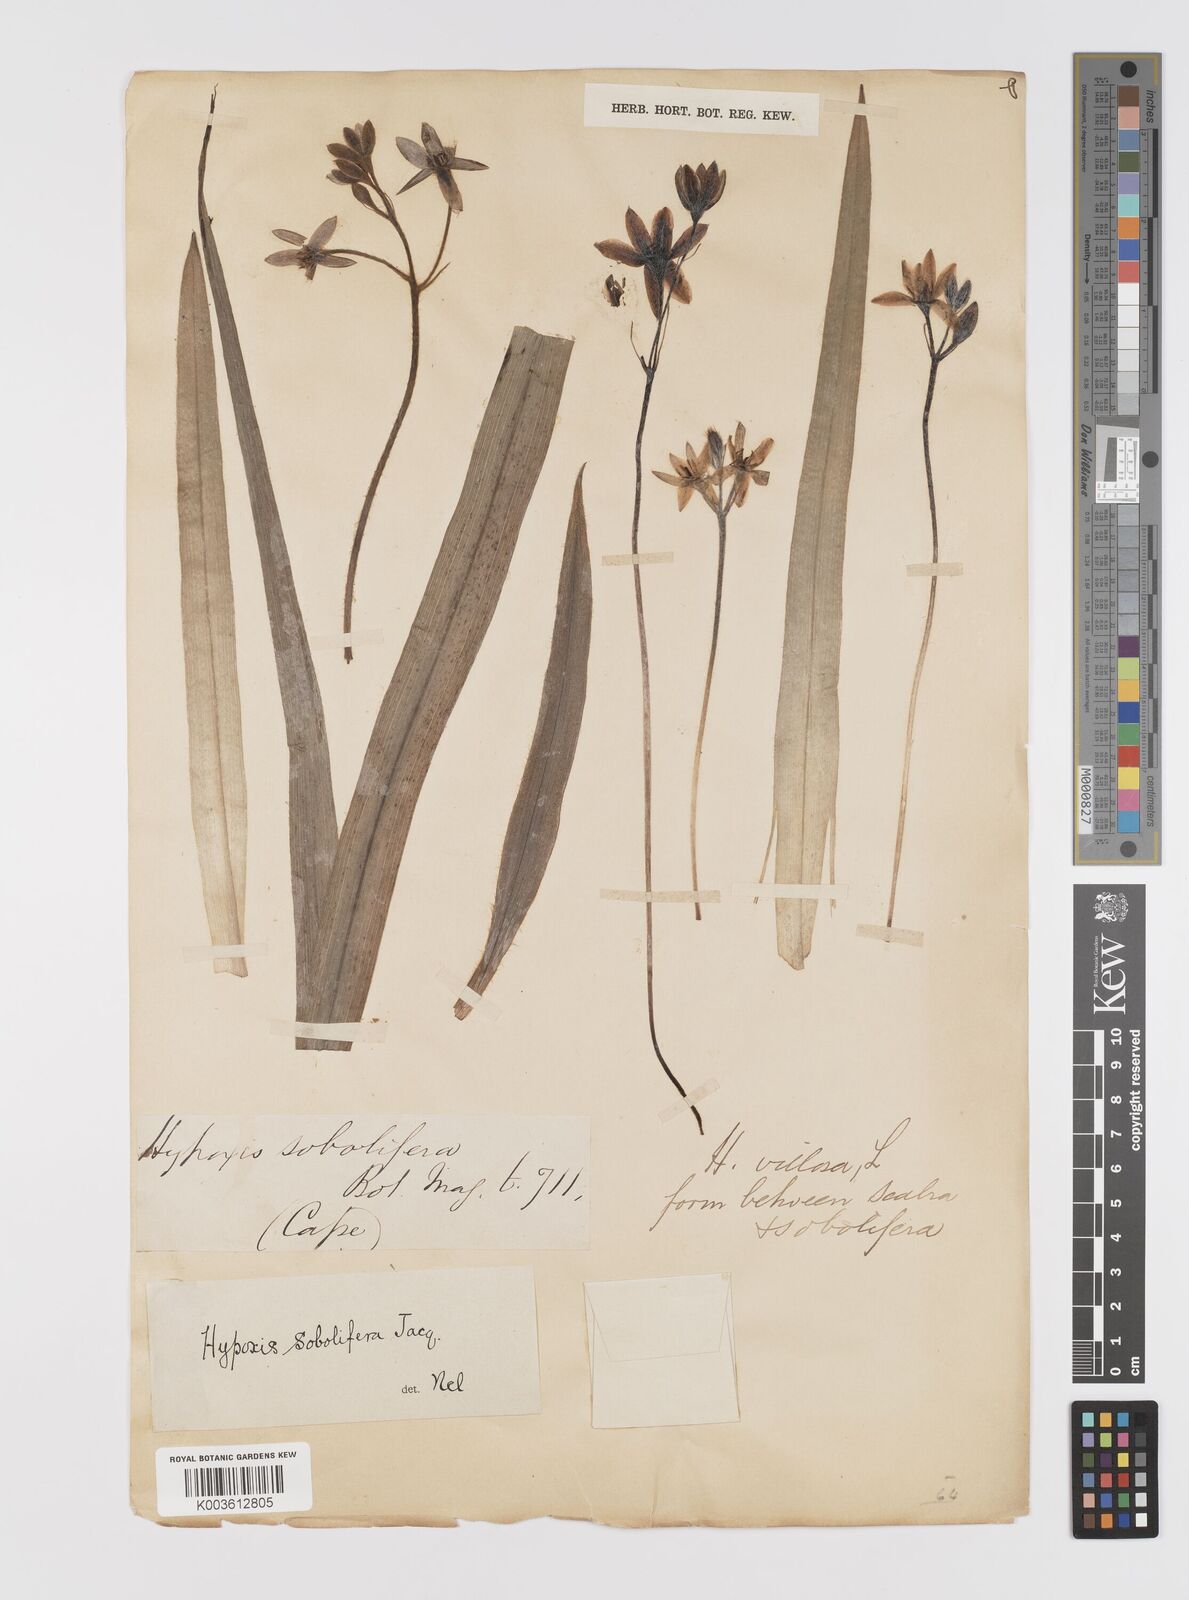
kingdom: Plantae
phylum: Tracheophyta
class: Liliopsida
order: Asparagales
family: Hypoxidaceae
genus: Hypoxis
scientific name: Hypoxis sobolifera
